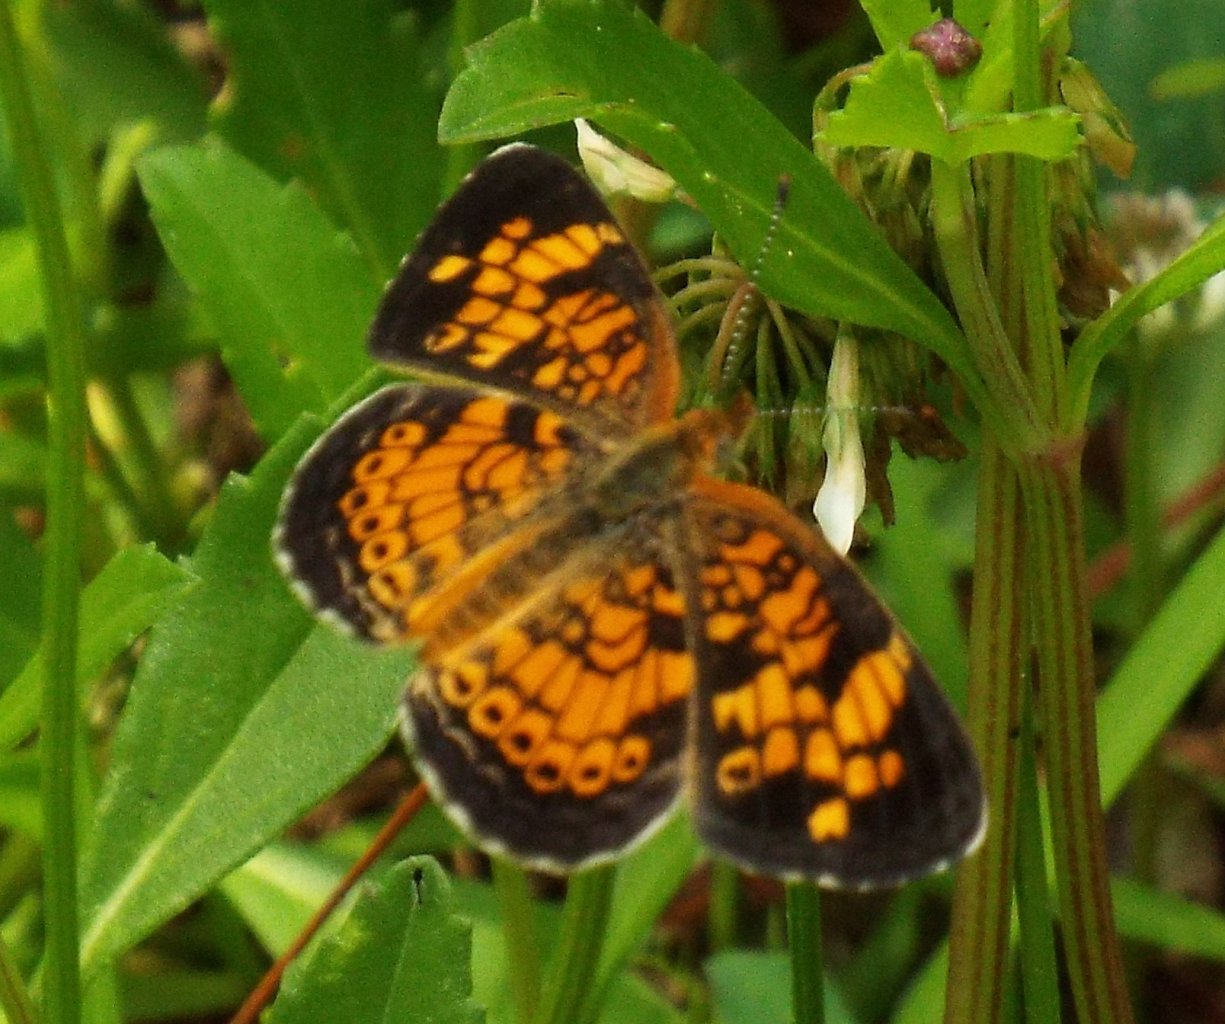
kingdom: Animalia
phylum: Arthropoda
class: Insecta
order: Lepidoptera
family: Nymphalidae
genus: Phyciodes
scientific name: Phyciodes tharos
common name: Pearl Crescent
